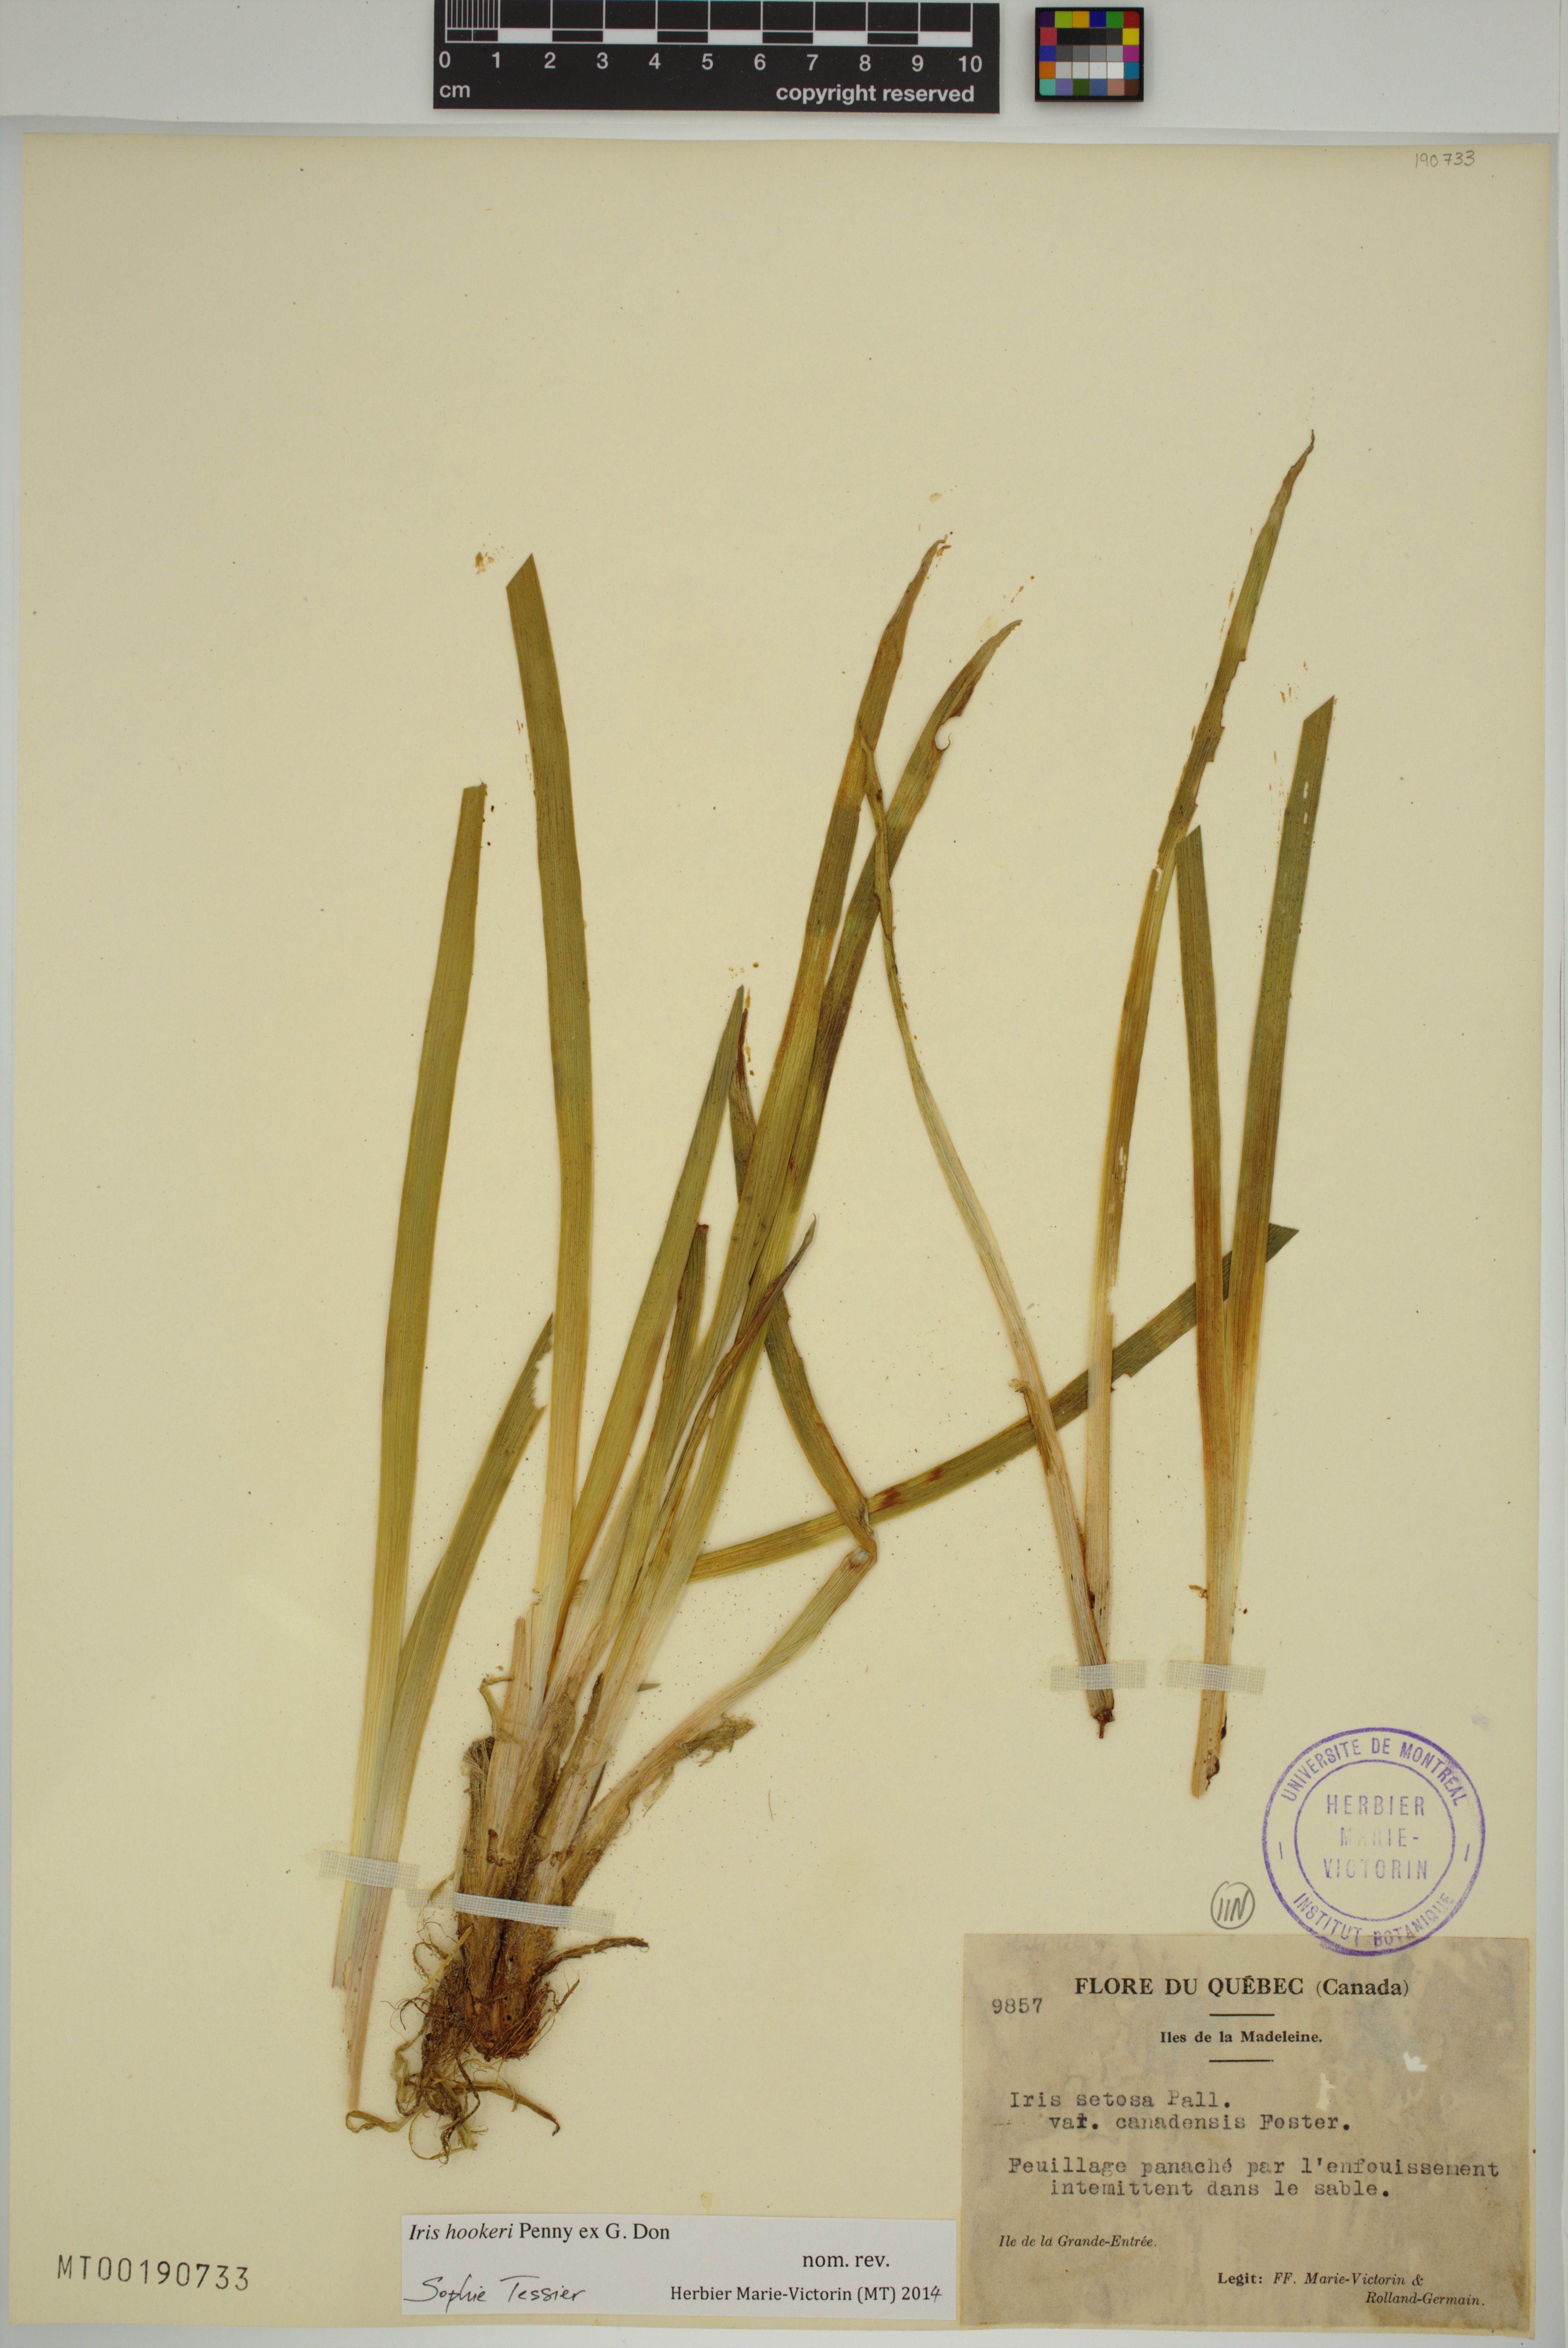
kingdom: Plantae
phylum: Tracheophyta
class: Liliopsida
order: Asparagales
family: Iridaceae
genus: Iris
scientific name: Iris hookeri
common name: Canada beach-head iris
